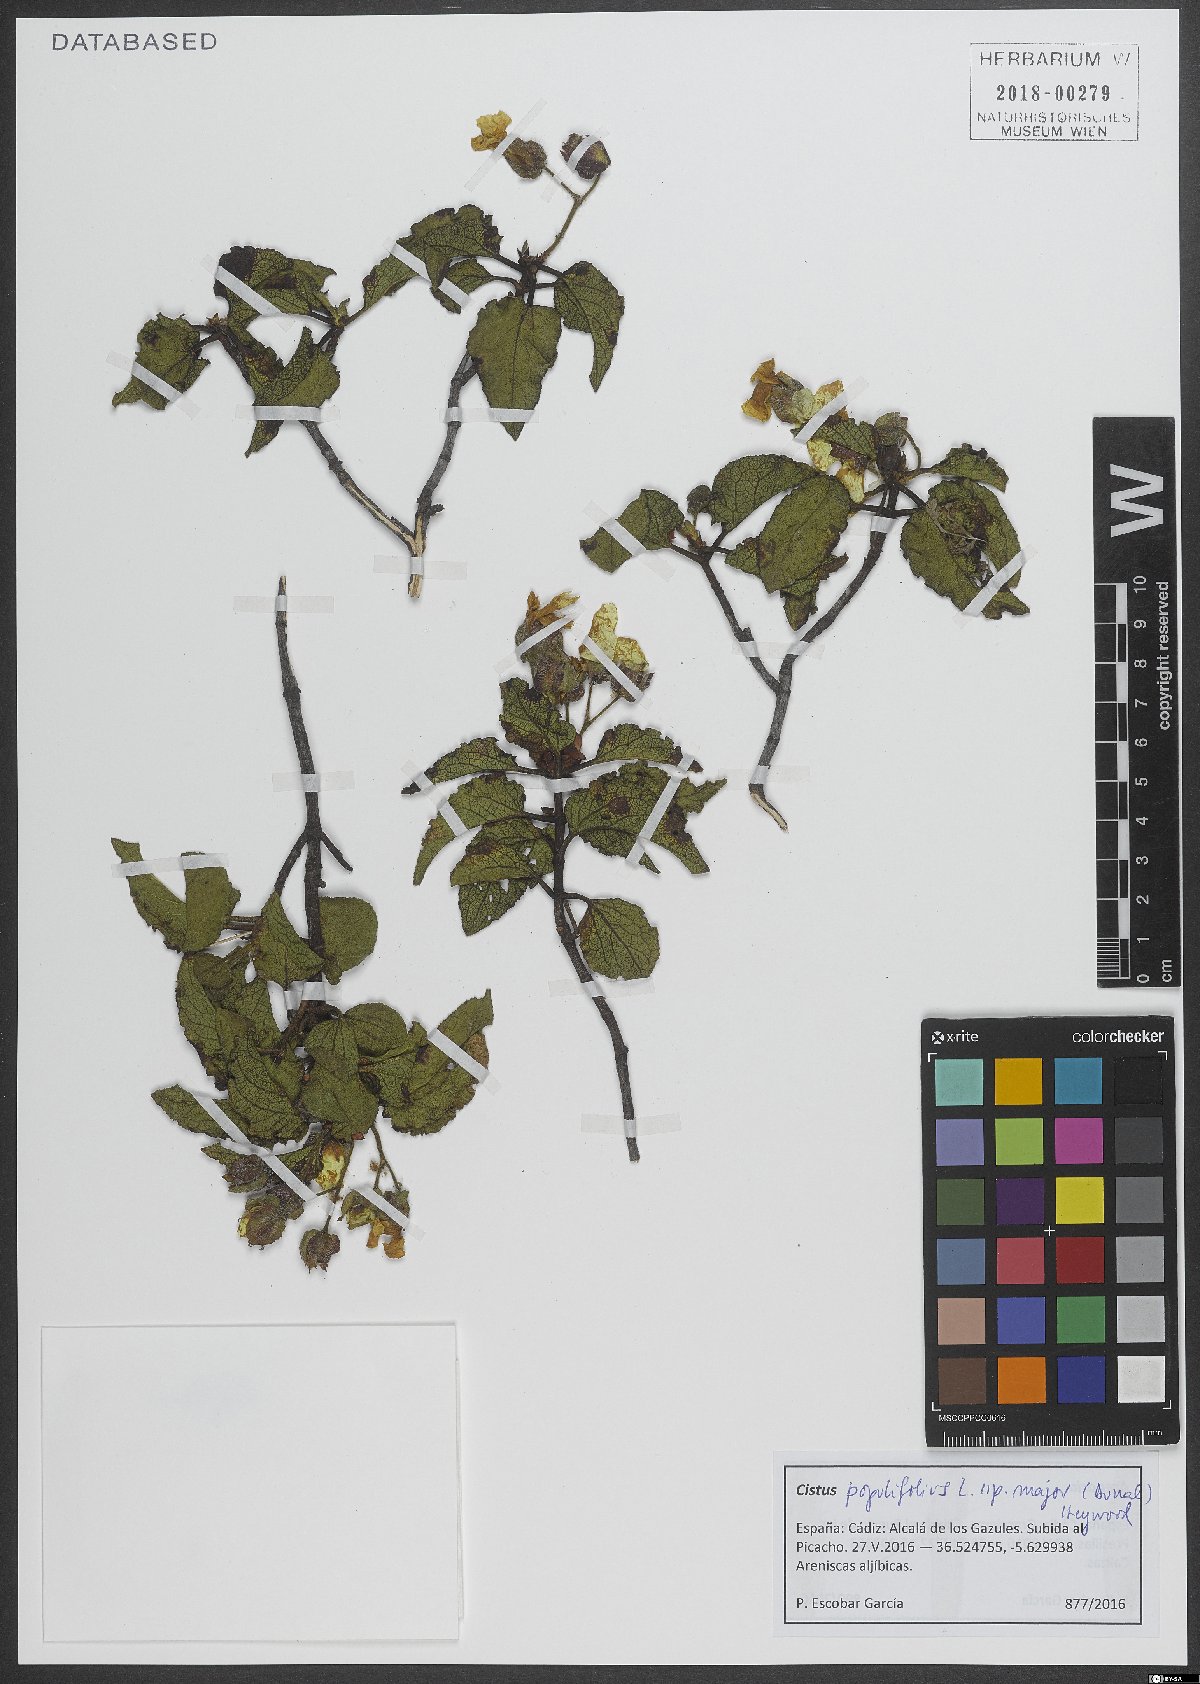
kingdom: Plantae
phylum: Tracheophyta
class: Magnoliopsida
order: Malvales
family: Cistaceae
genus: Cistus
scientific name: Cistus populifolius
